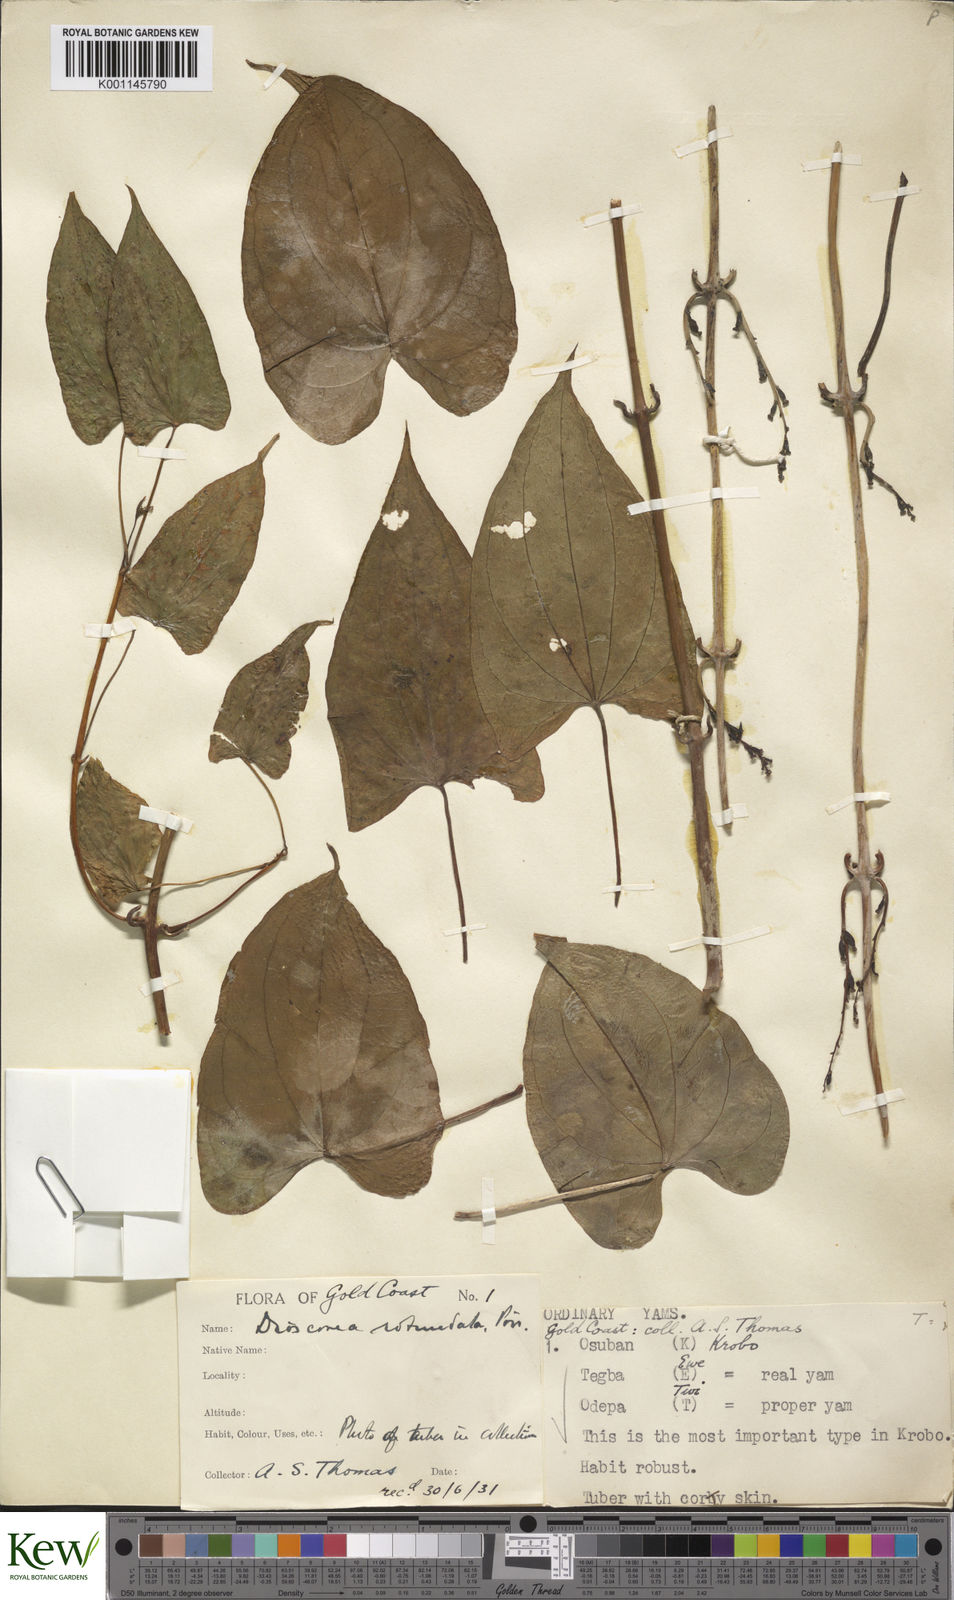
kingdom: Plantae
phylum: Tracheophyta
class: Liliopsida
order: Dioscoreales
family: Dioscoreaceae
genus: Dioscorea
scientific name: Dioscorea cayenensis
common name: Attoto yam
